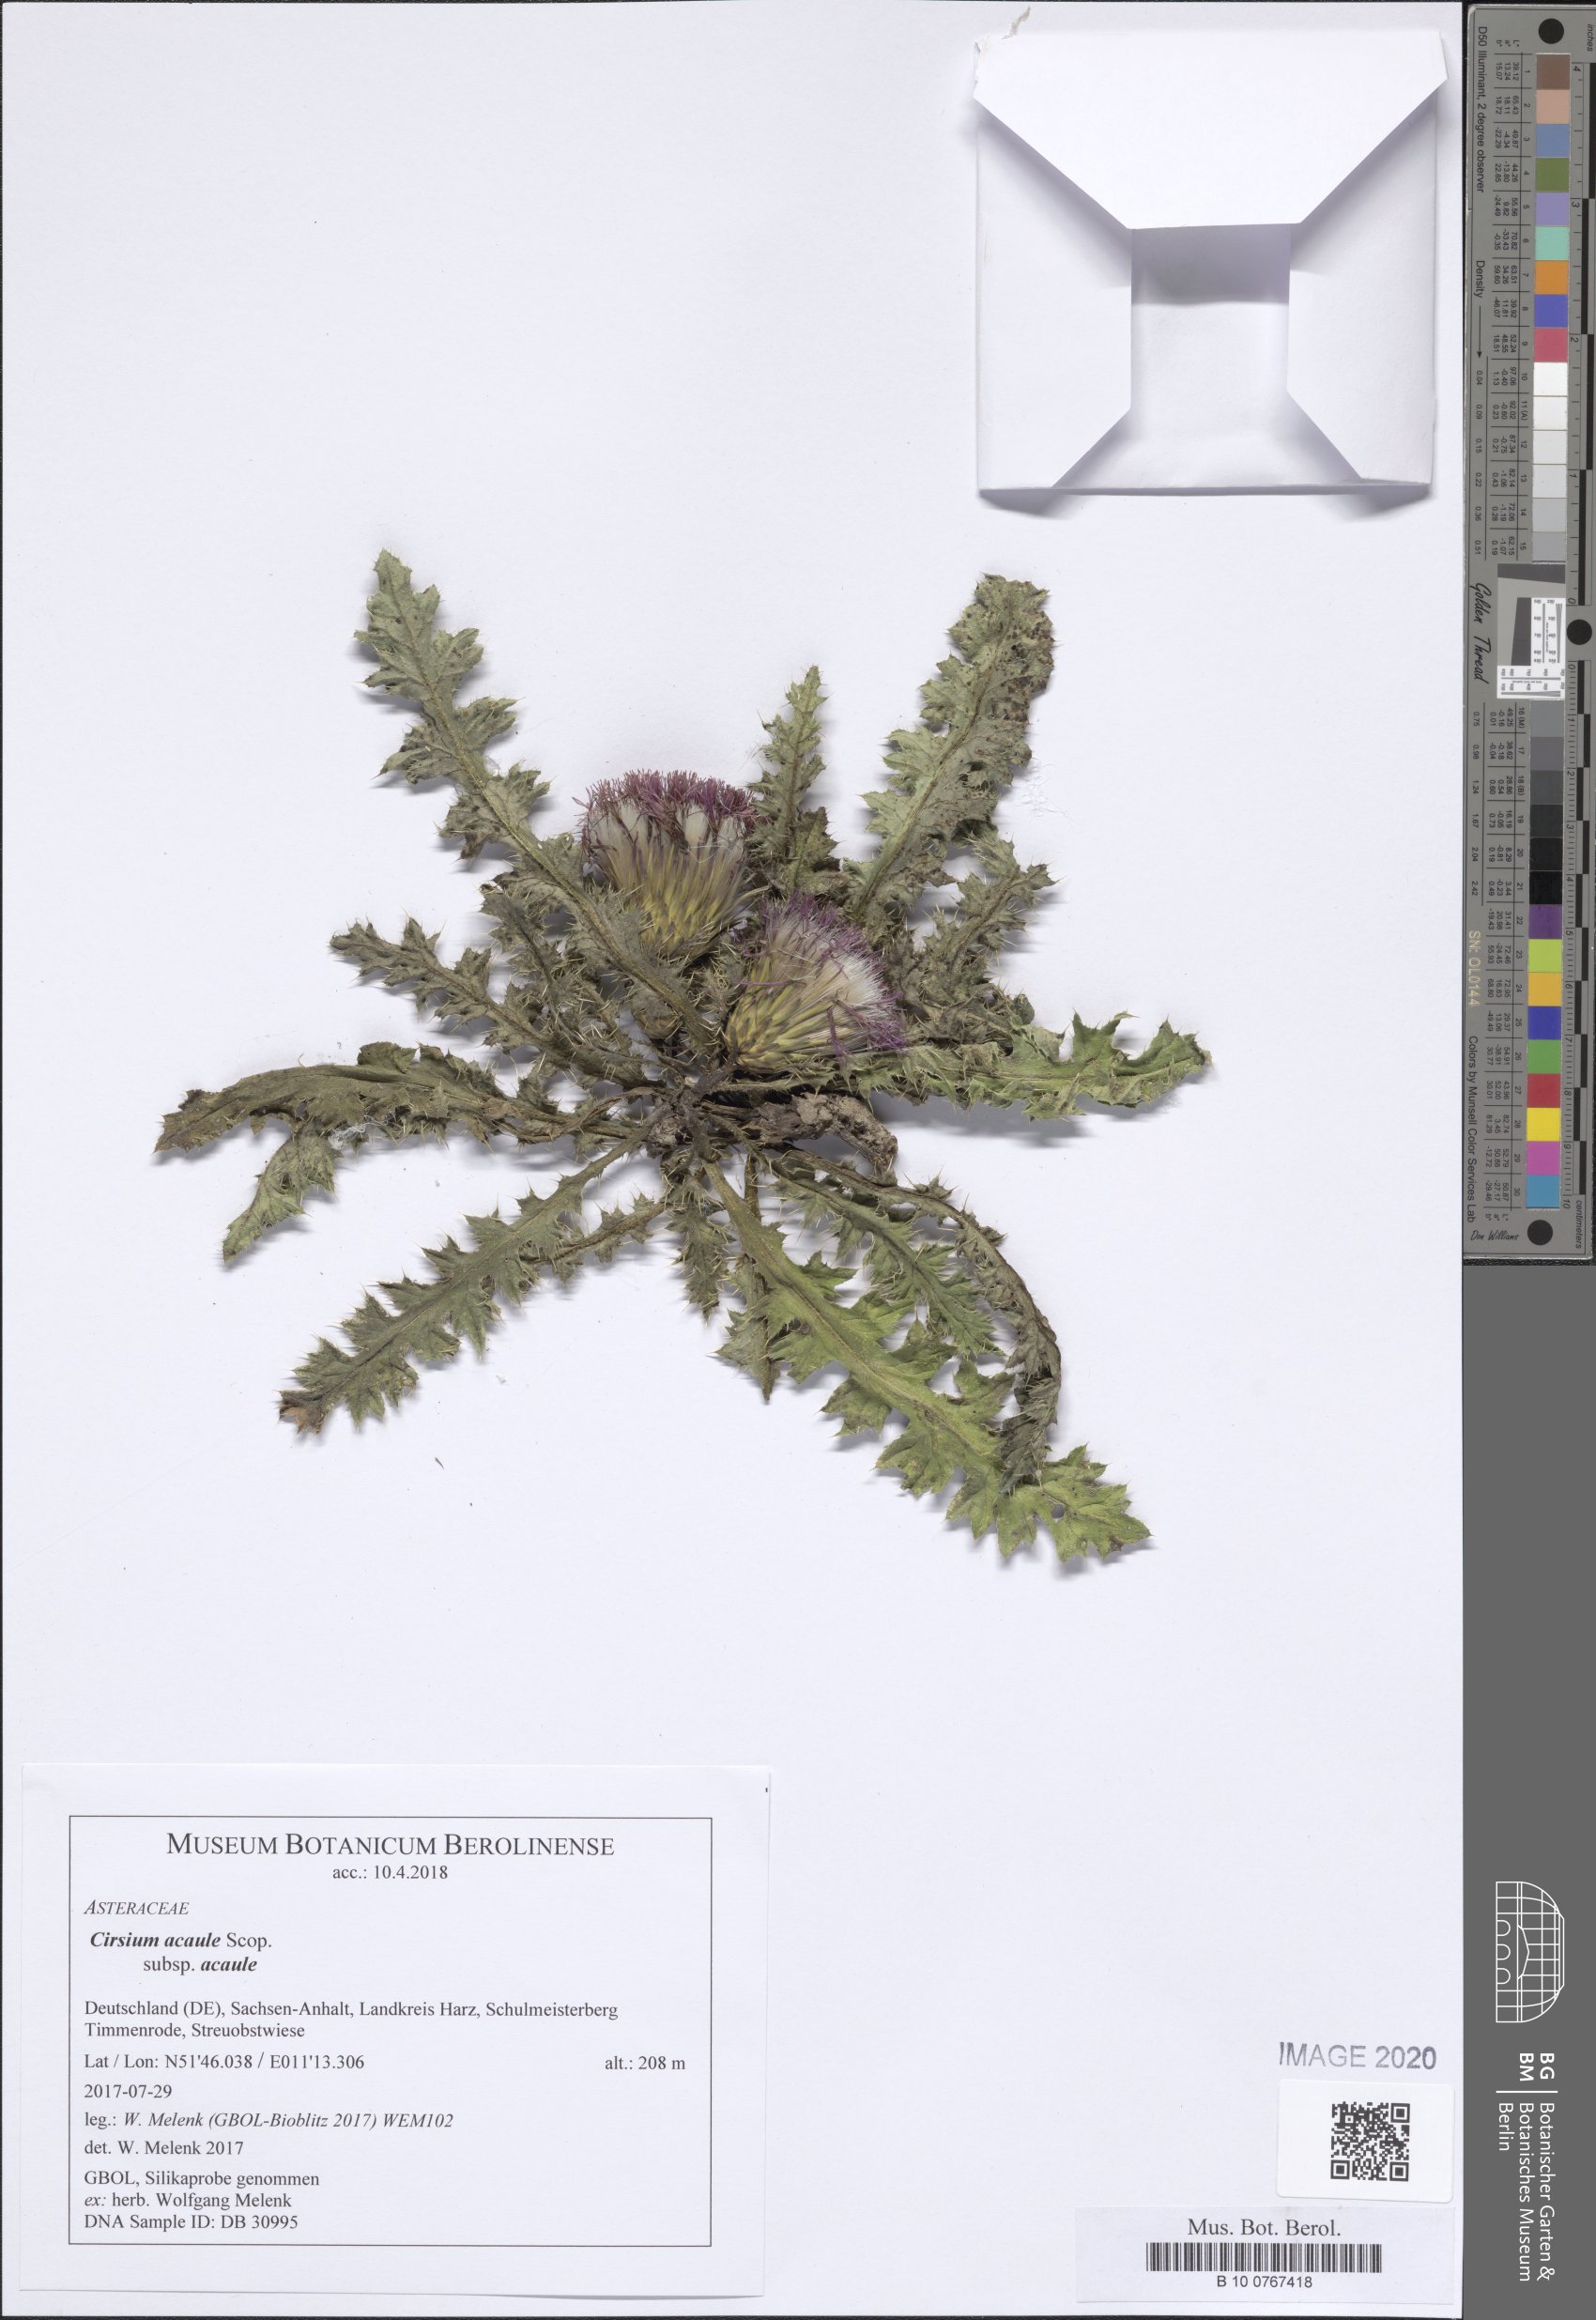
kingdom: Plantae
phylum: Tracheophyta
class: Magnoliopsida
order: Asterales
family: Asteraceae
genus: Cirsium
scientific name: Cirsium acaule
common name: Dwarf thistle
